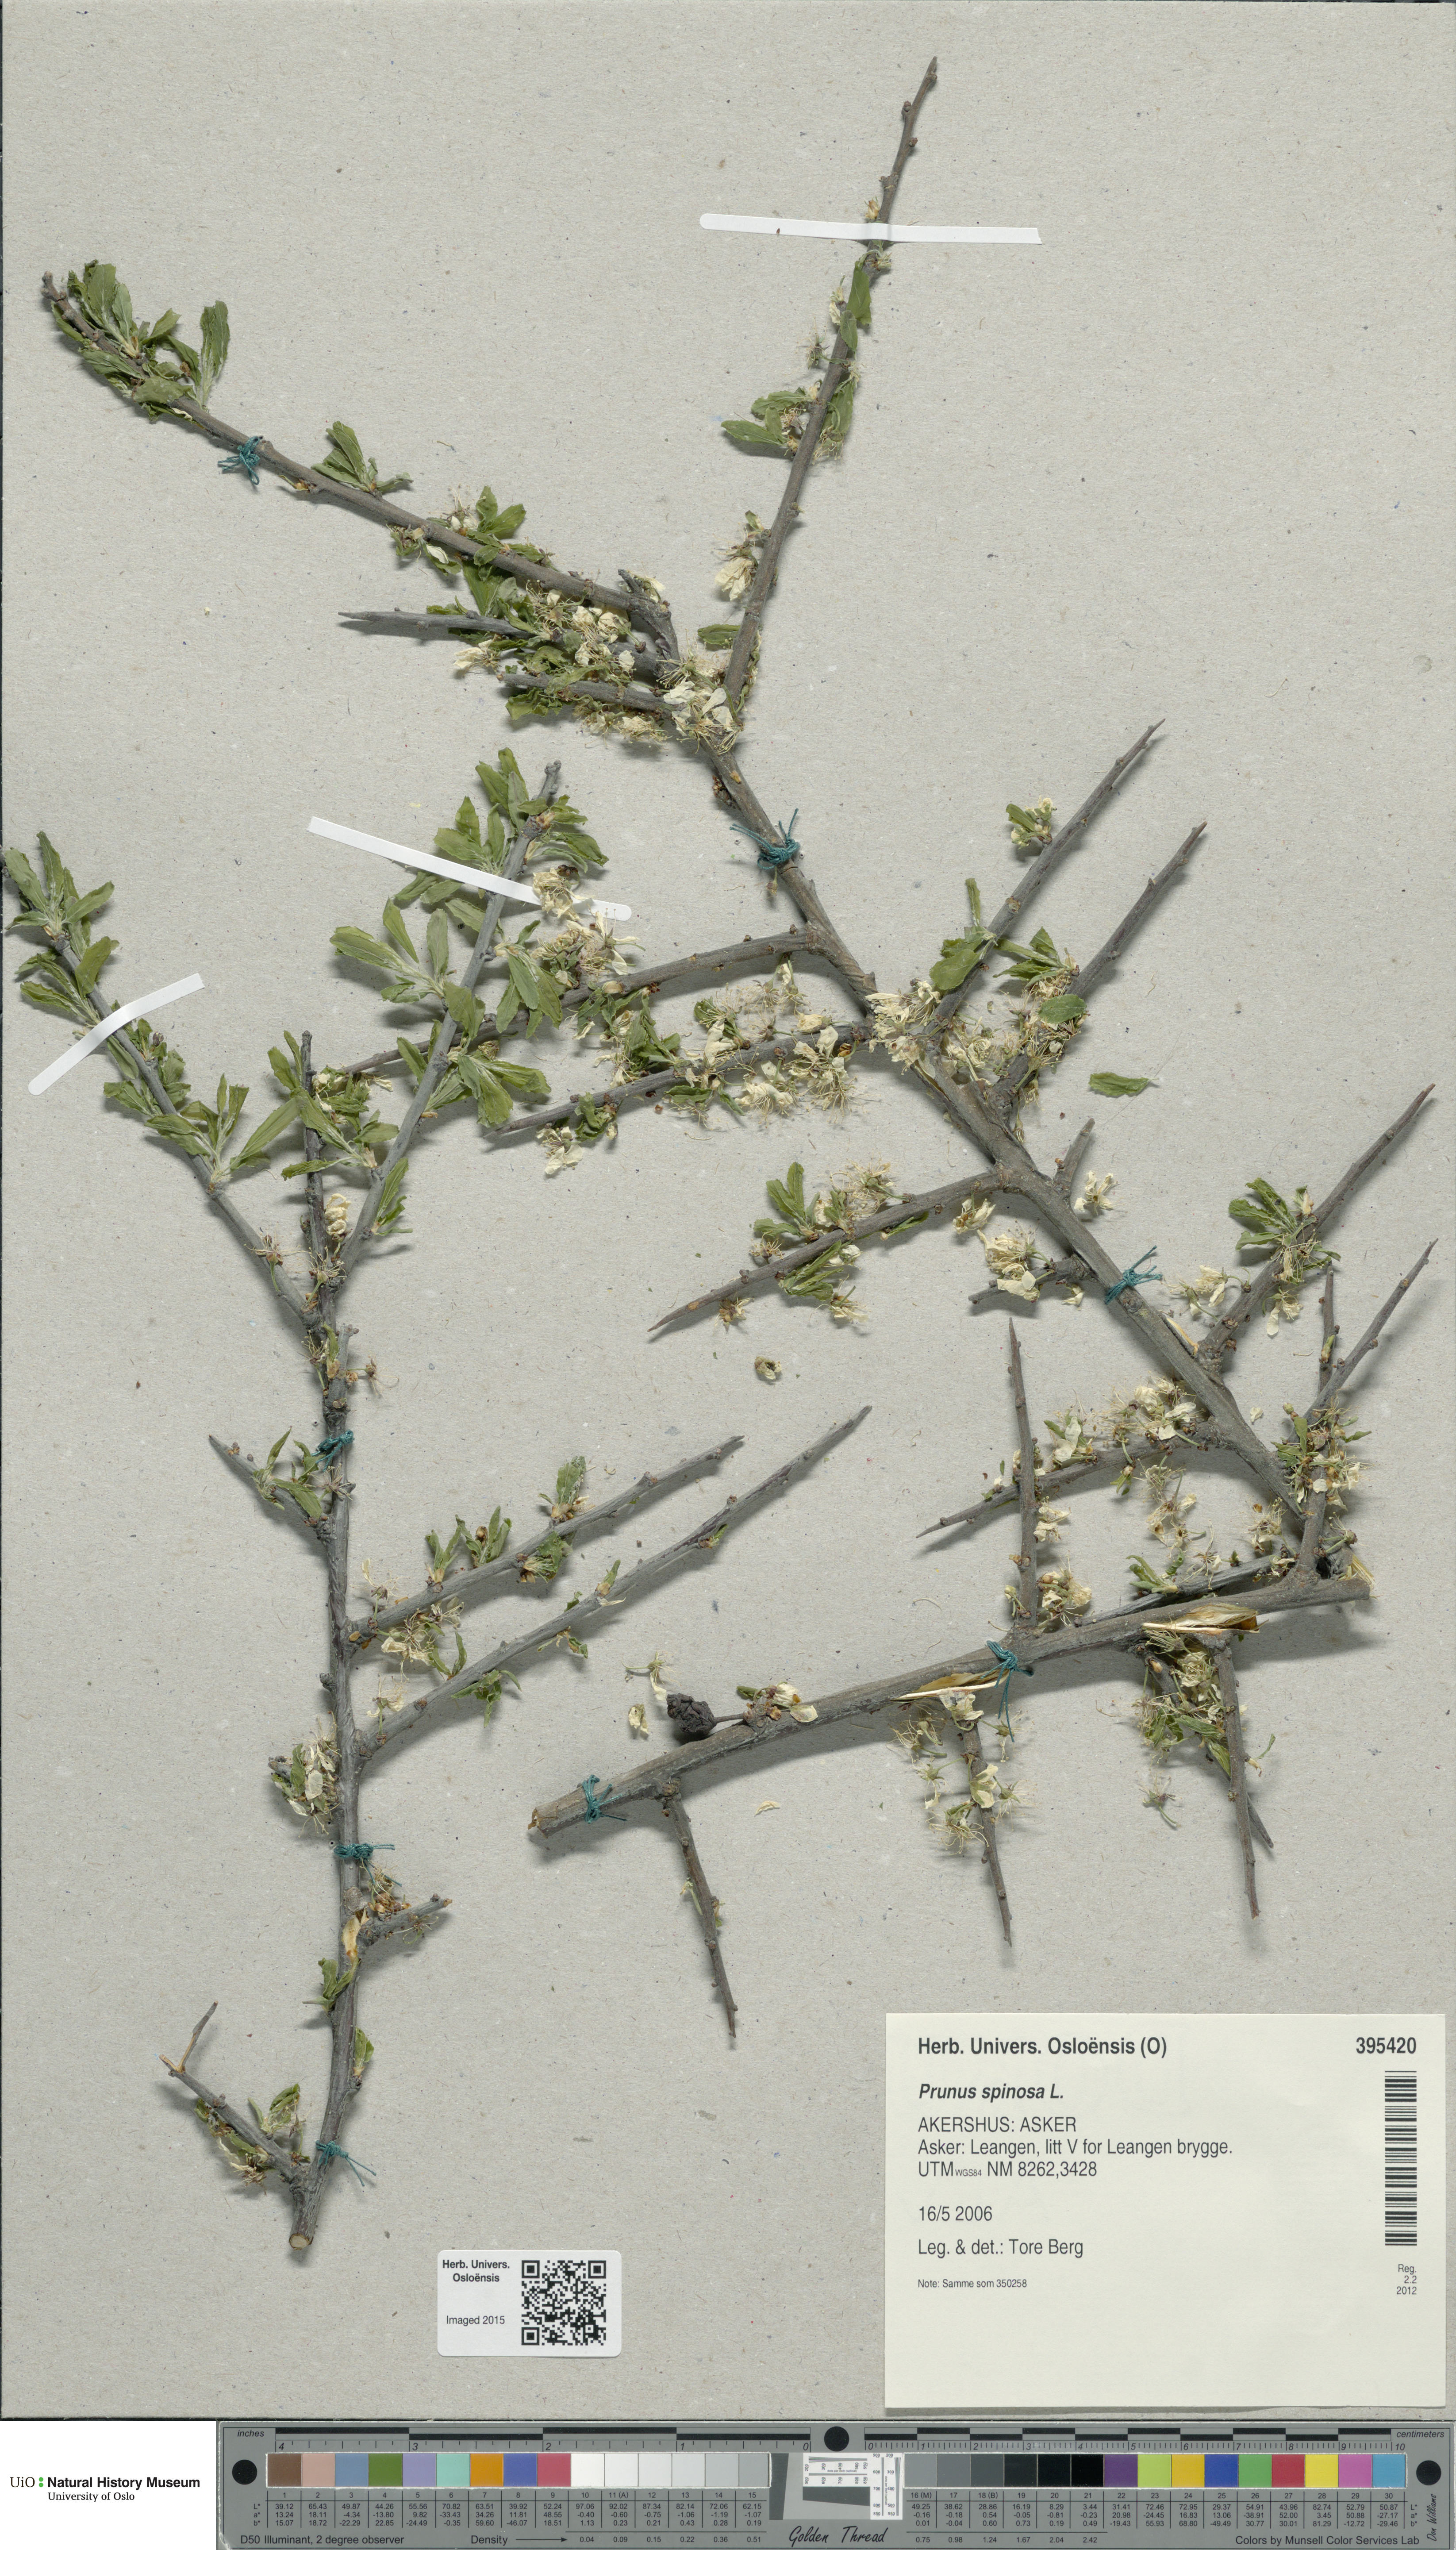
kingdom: Plantae
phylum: Tracheophyta
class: Magnoliopsida
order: Rosales
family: Rosaceae
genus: Prunus
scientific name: Prunus spinosa
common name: Blackthorn
